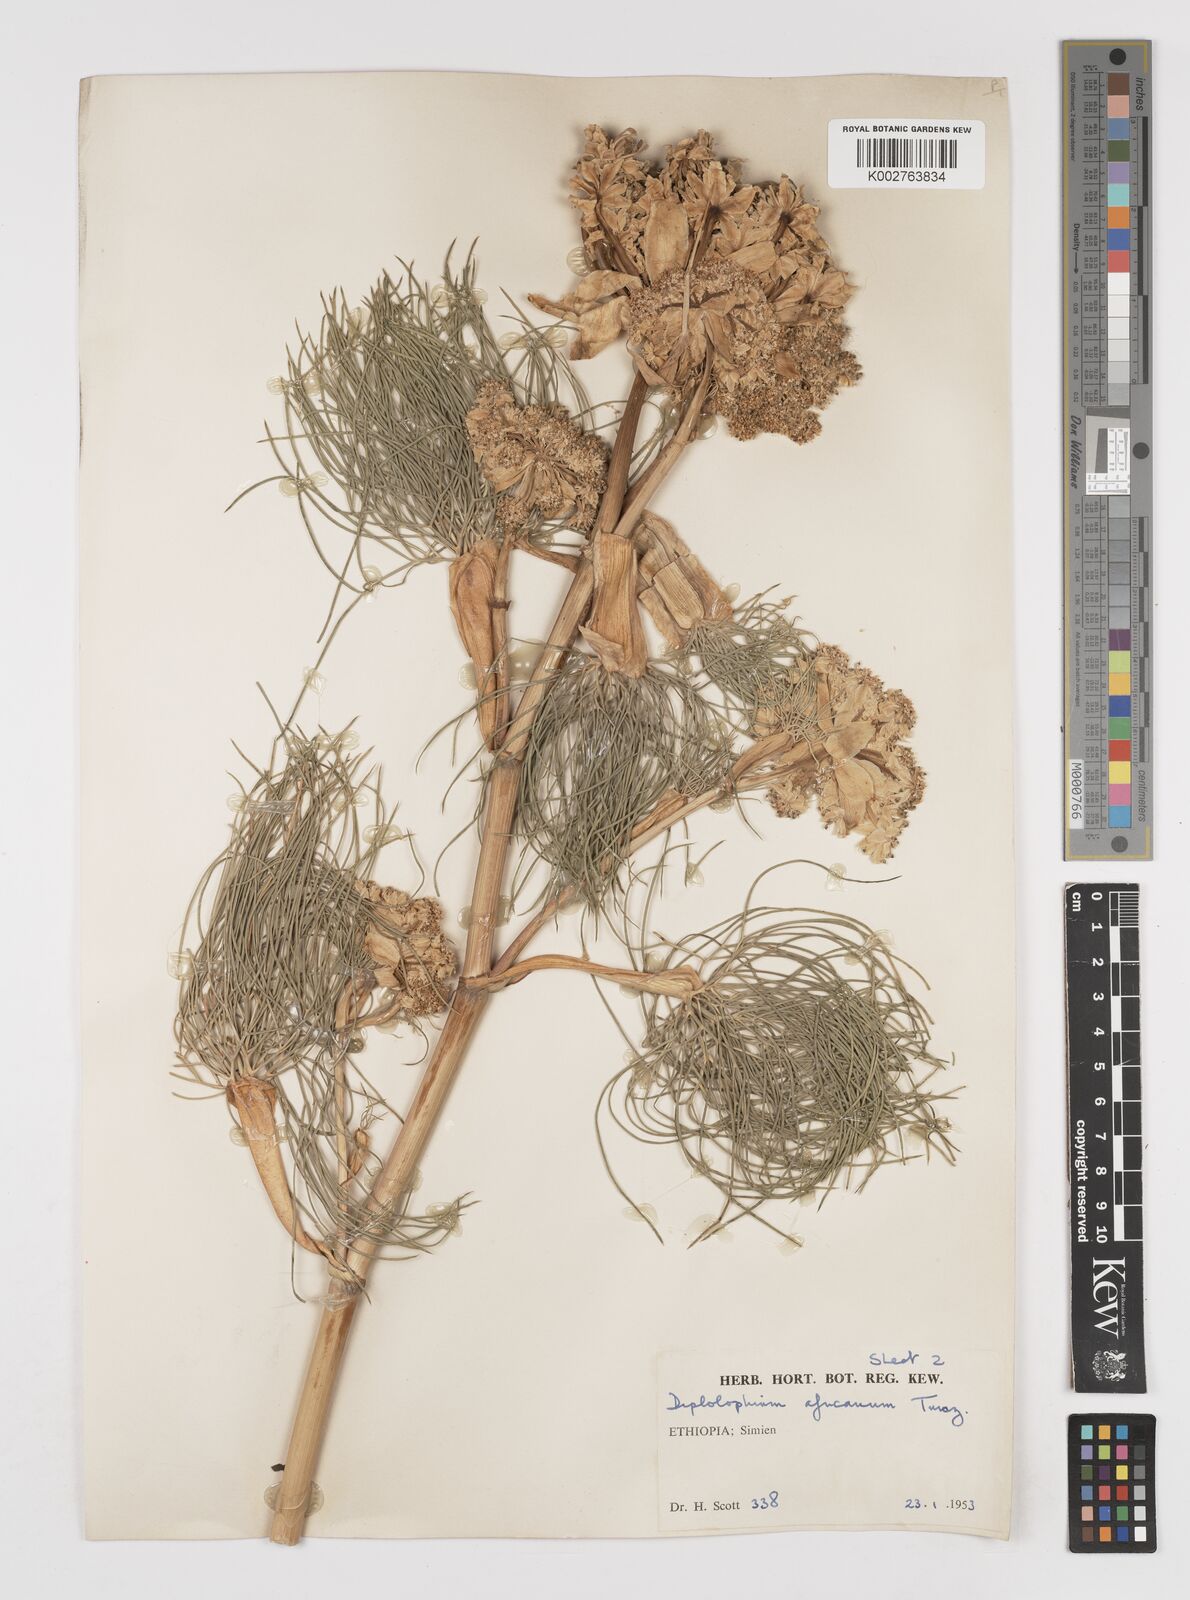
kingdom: Plantae
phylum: Tracheophyta
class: Magnoliopsida
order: Apiales
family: Apiaceae
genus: Diplolophium
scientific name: Diplolophium africanum
